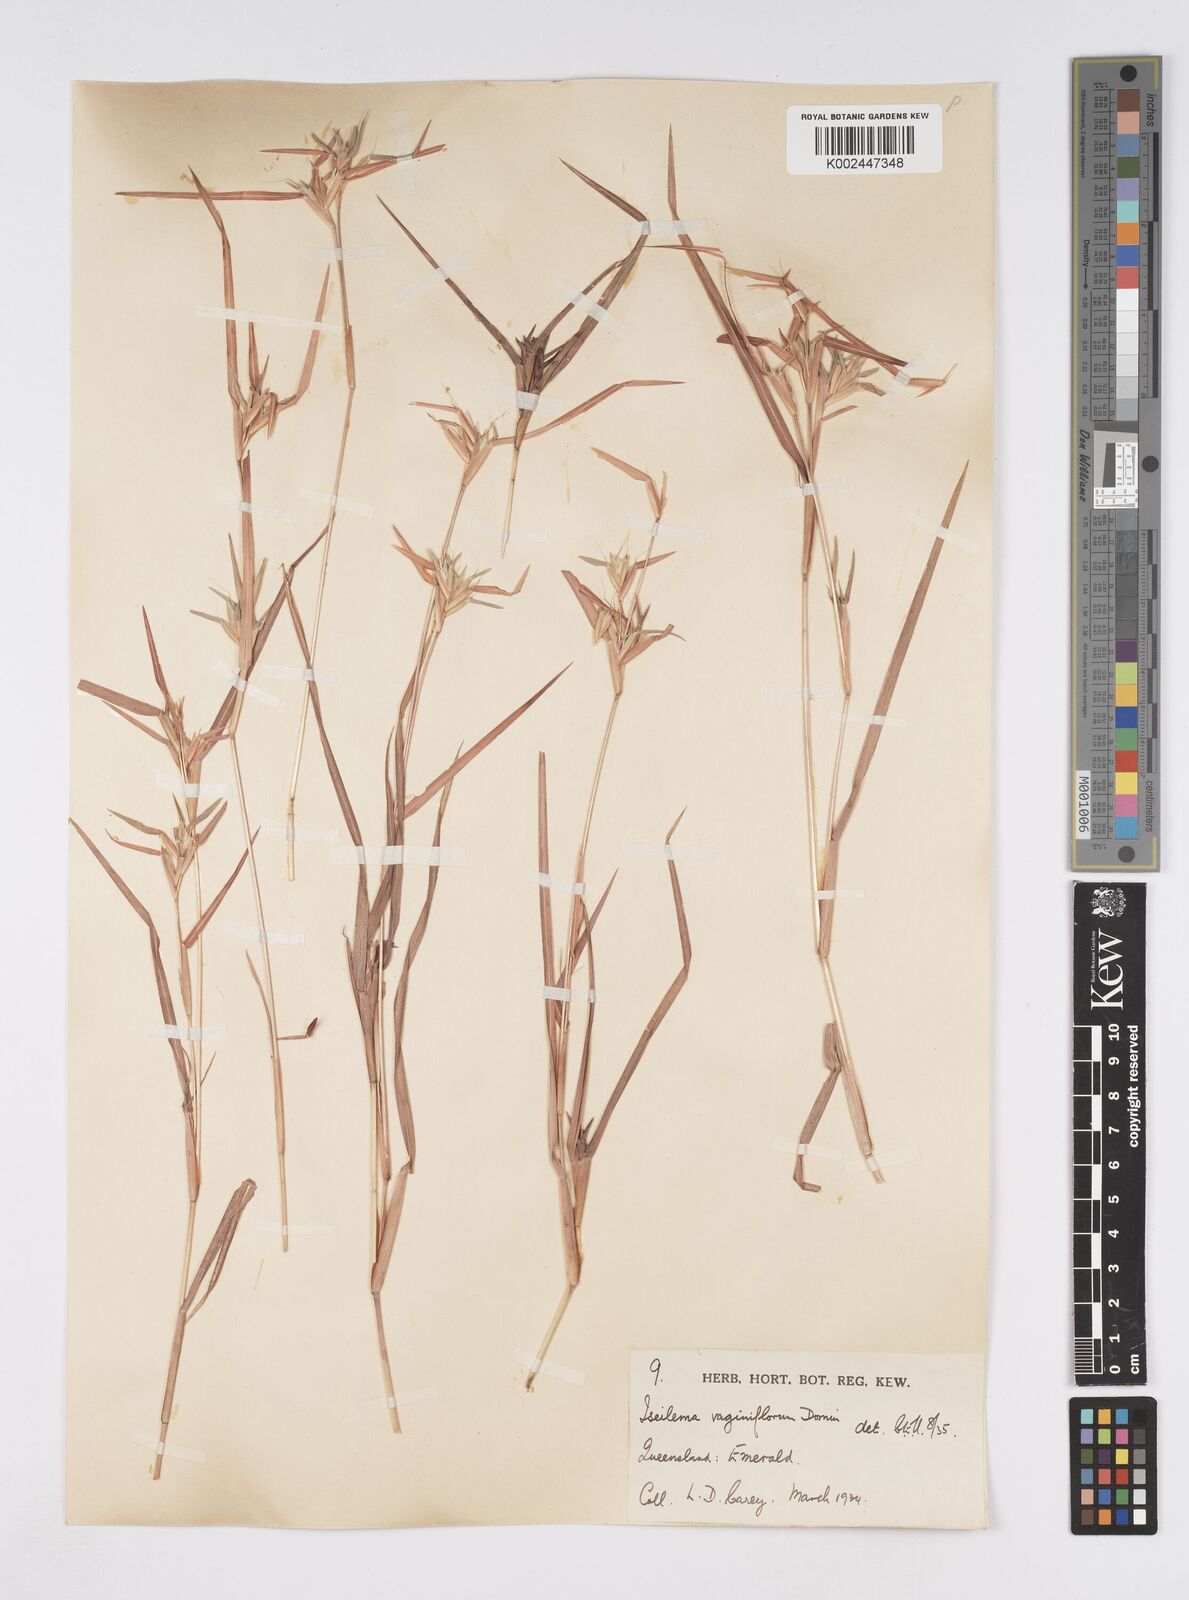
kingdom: Plantae
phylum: Tracheophyta
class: Liliopsida
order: Poales
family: Poaceae
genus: Iseilema
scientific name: Iseilema vaginiflorum
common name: Red flinders grass
